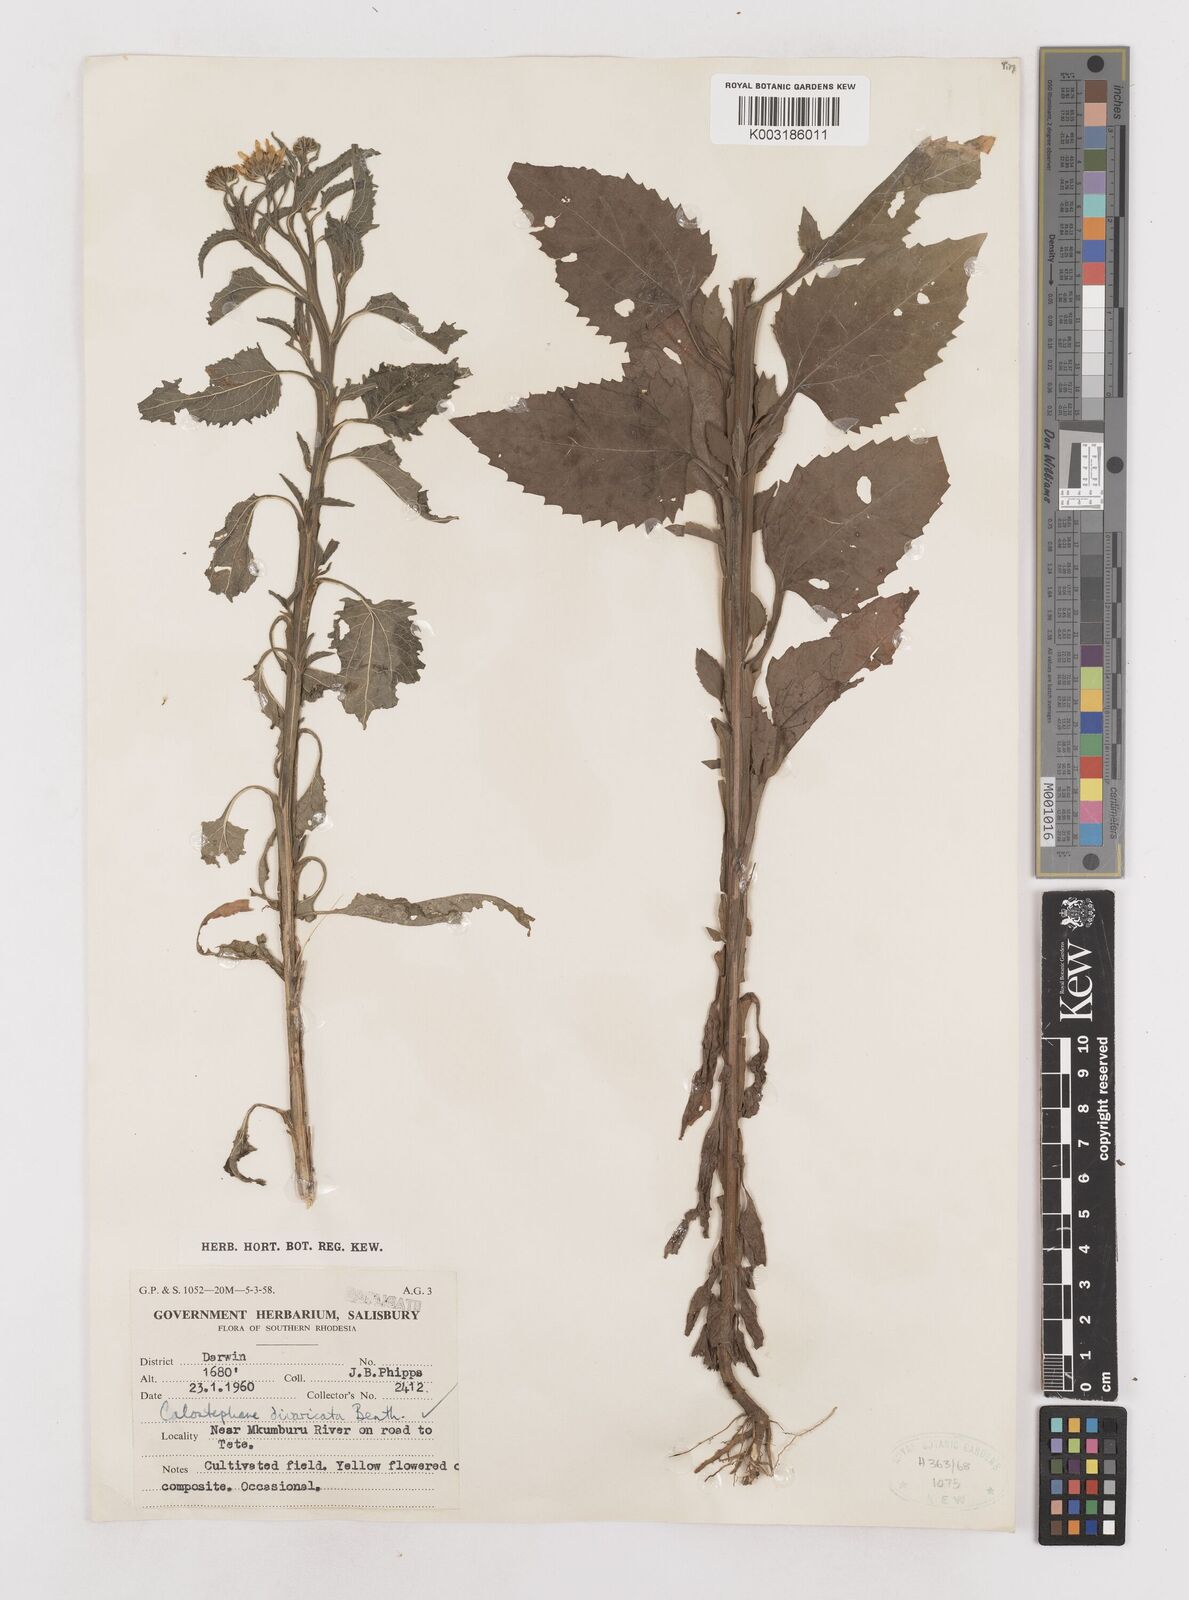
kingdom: Plantae
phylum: Tracheophyta
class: Magnoliopsida
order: Asterales
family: Asteraceae
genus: Calostephane
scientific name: Calostephane divaricata
